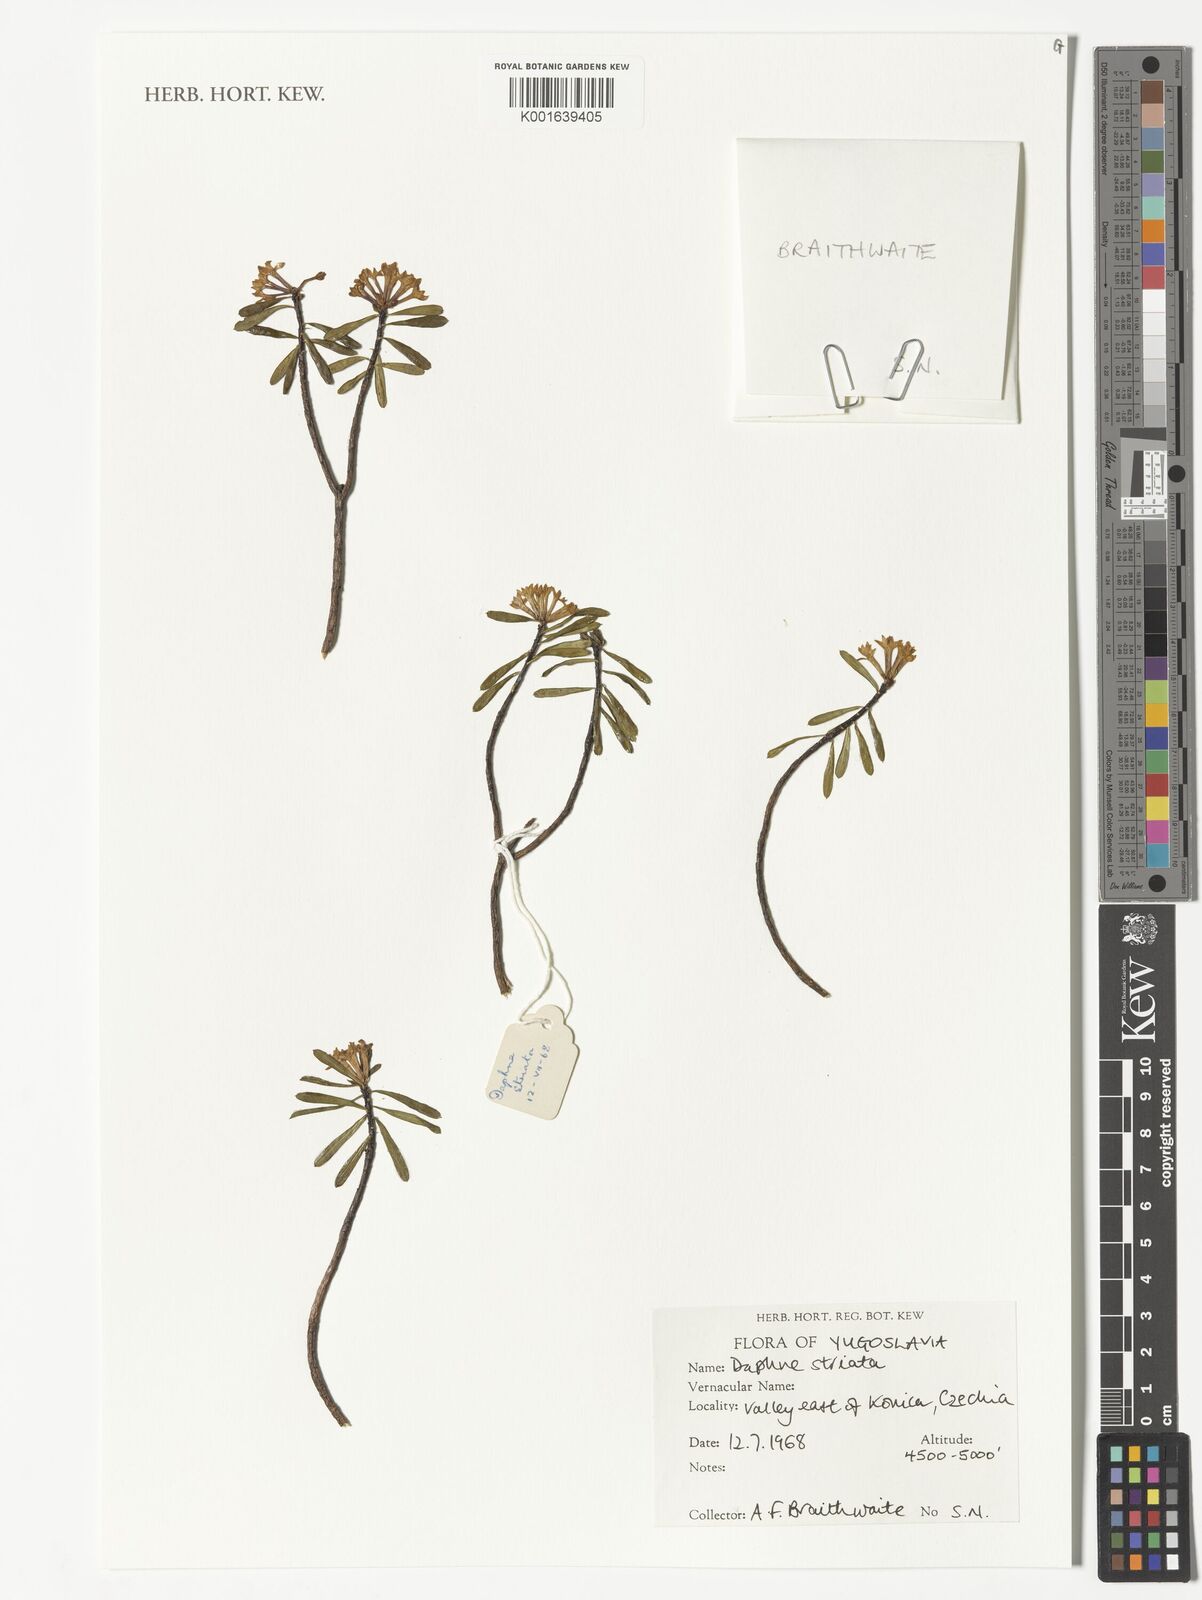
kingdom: Plantae
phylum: Tracheophyta
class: Magnoliopsida
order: Malvales
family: Thymelaeaceae
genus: Daphne
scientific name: Daphne striata
